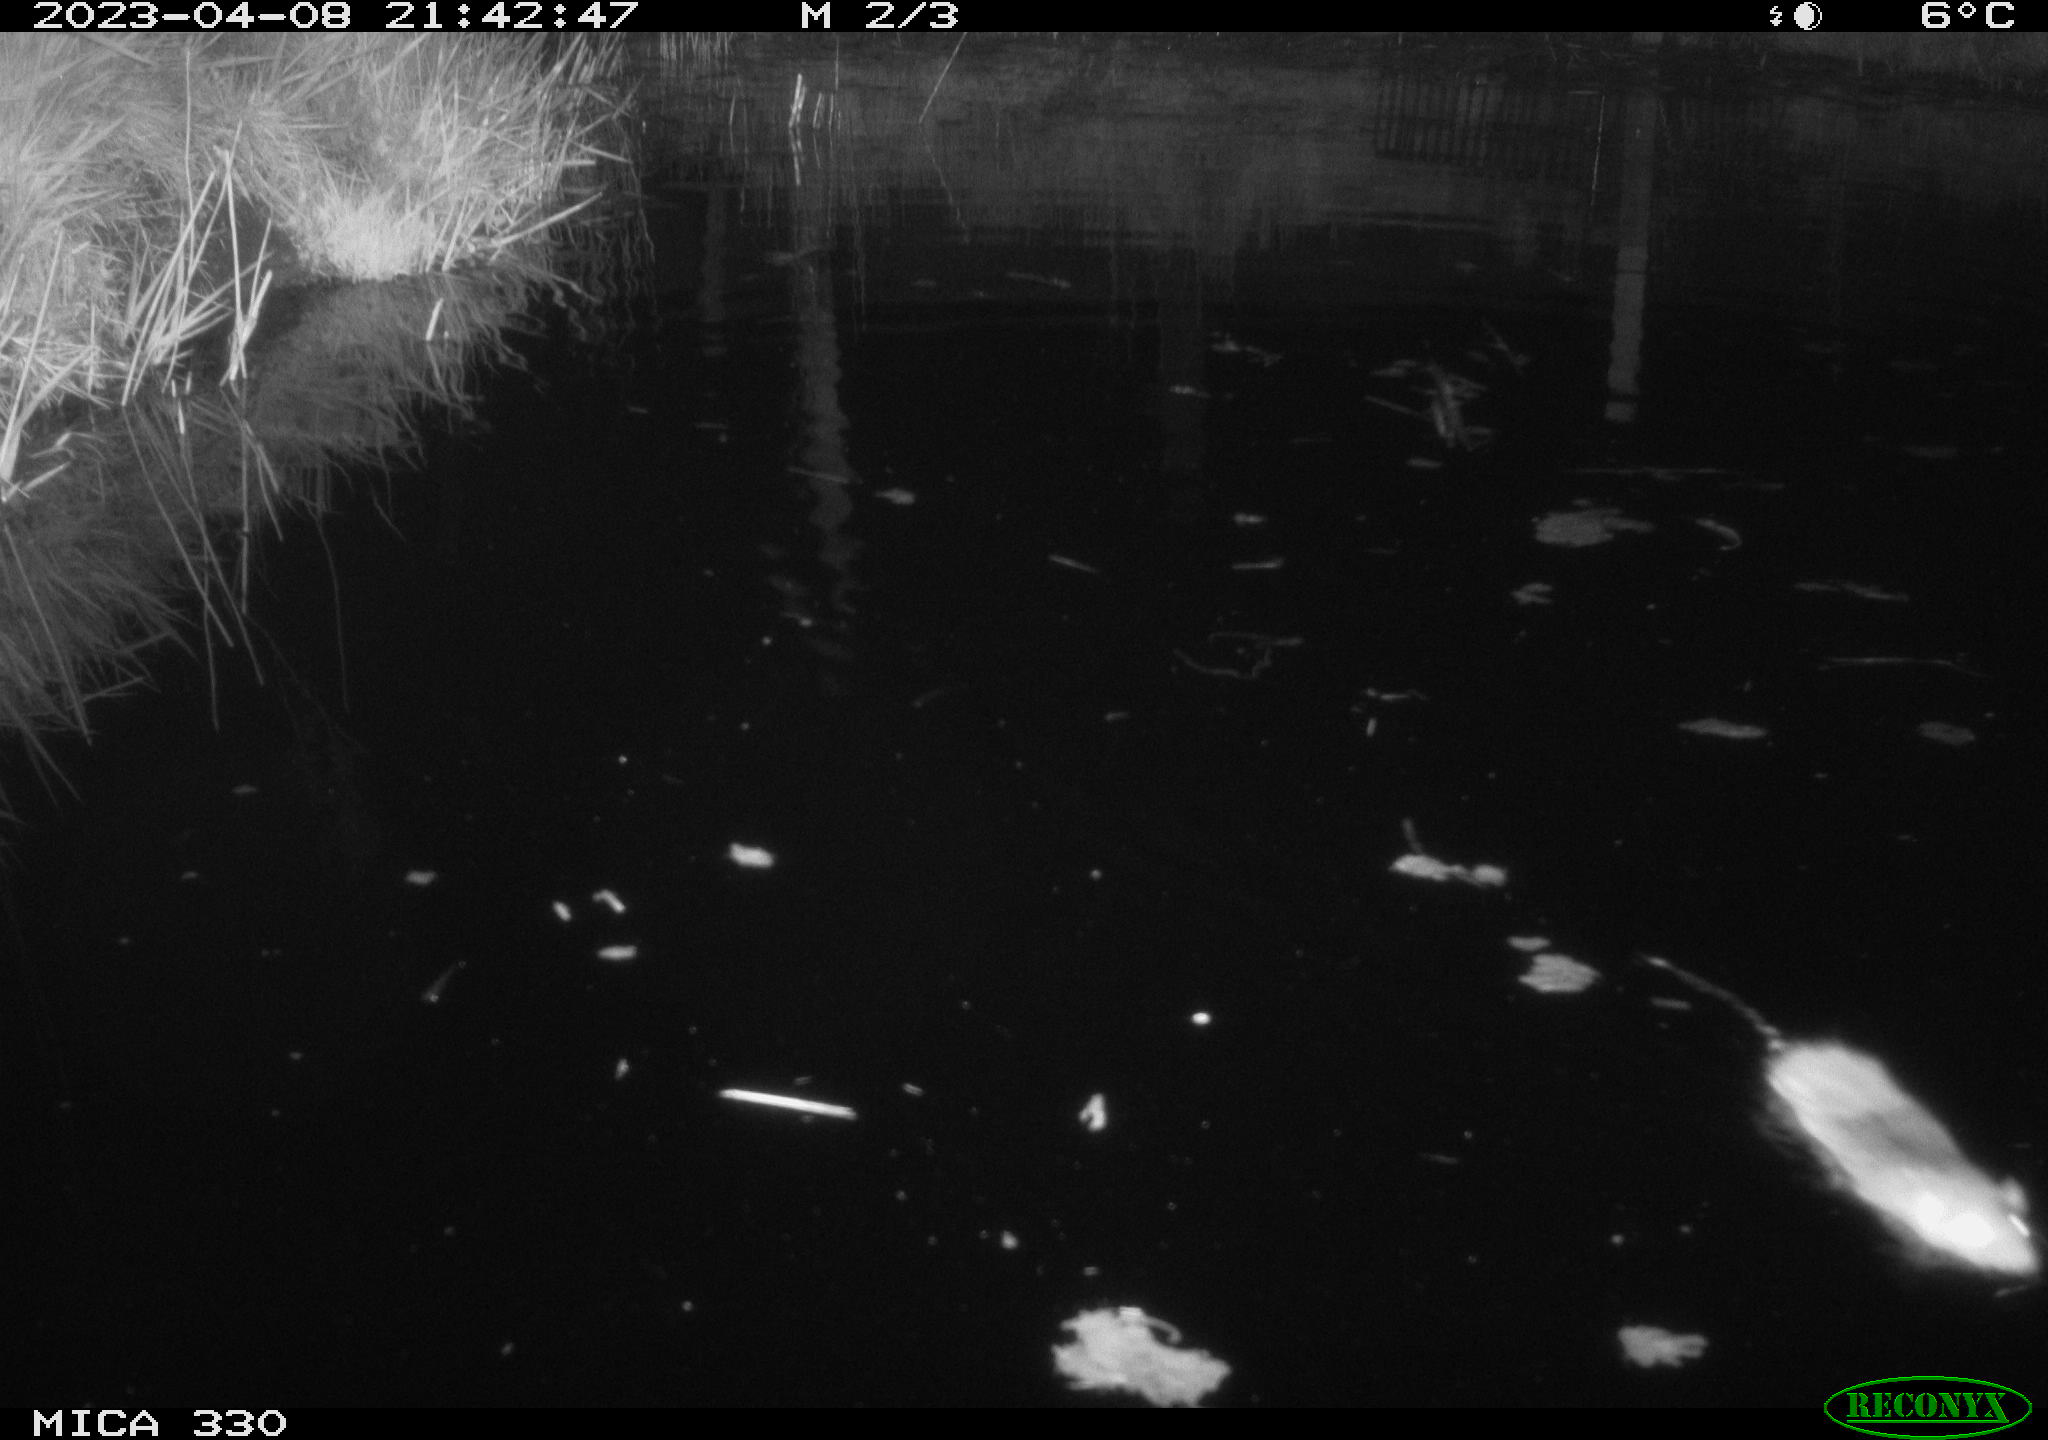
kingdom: Animalia
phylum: Chordata
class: Mammalia
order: Rodentia
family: Muridae
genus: Rattus
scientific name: Rattus norvegicus
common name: Brown rat
